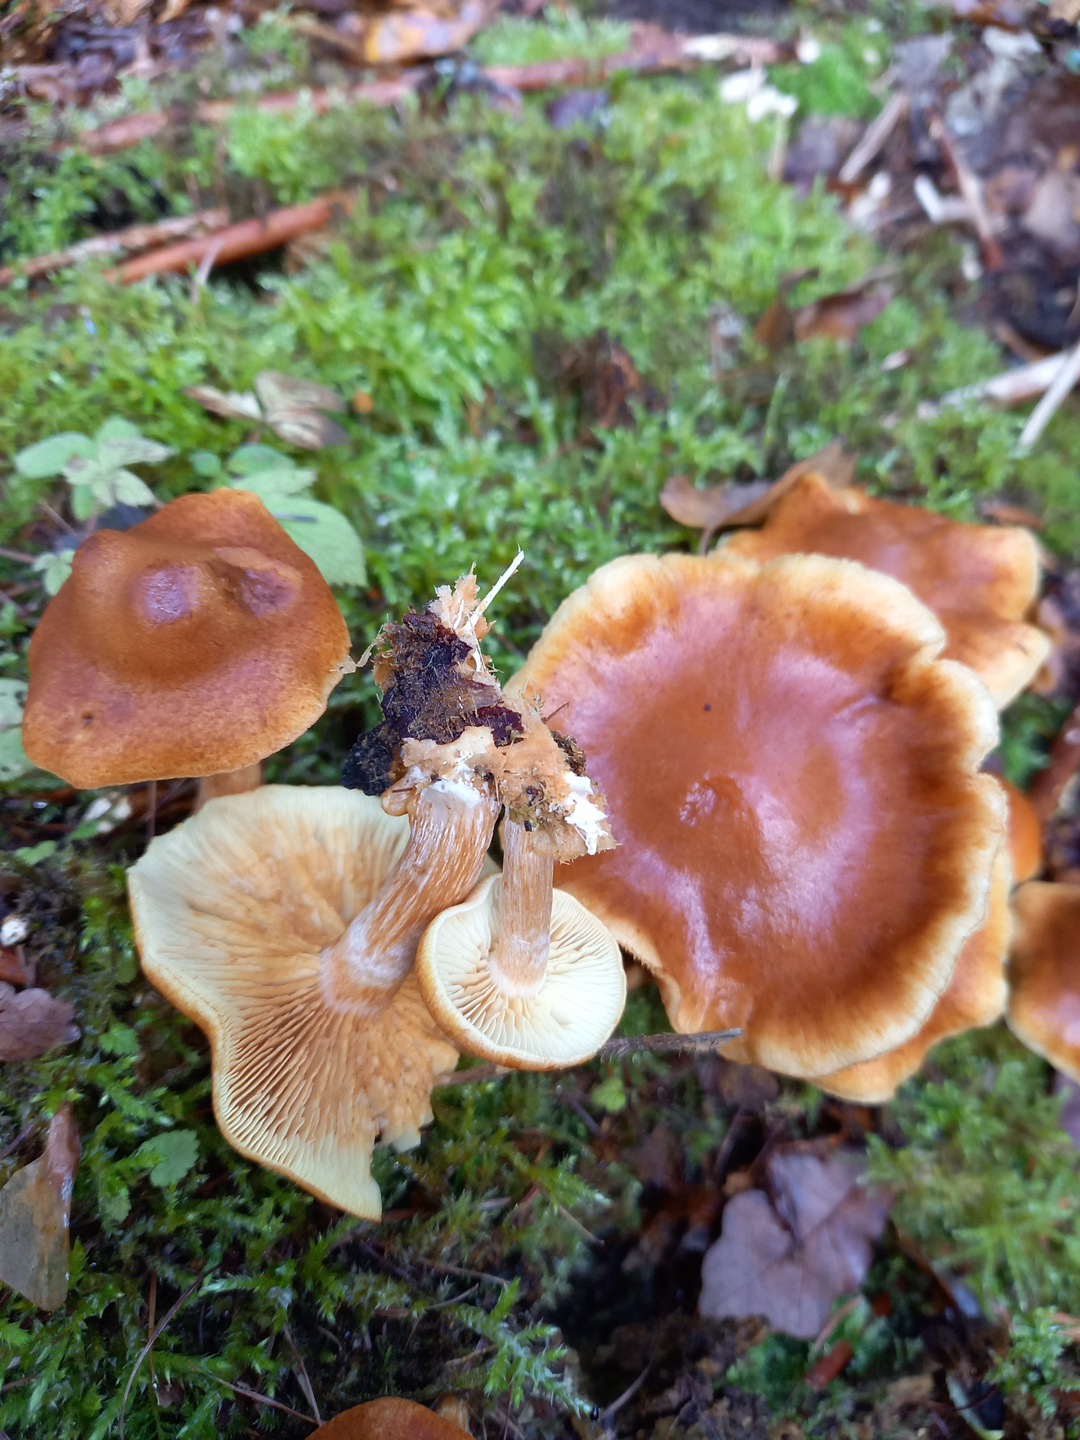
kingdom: Fungi
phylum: Basidiomycota
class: Agaricomycetes
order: Agaricales
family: Hymenogastraceae
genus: Gymnopilus
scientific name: Gymnopilus penetrans
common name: plettet flammehat
